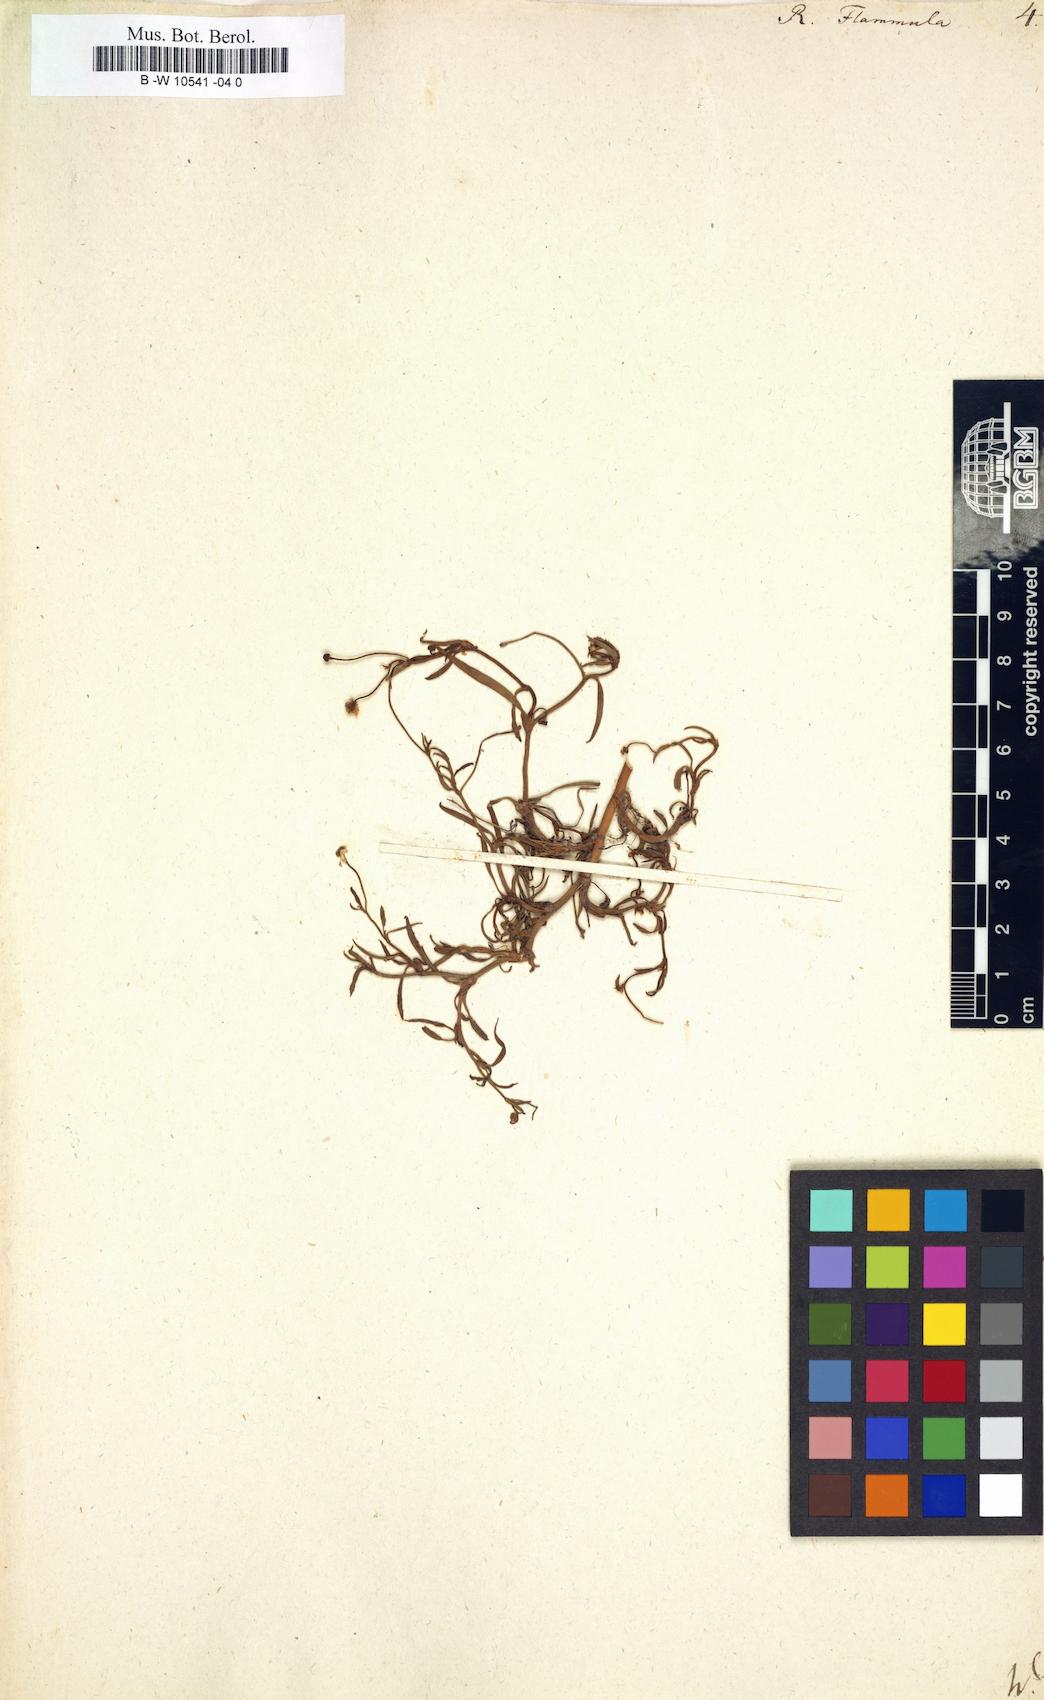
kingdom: Plantae
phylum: Tracheophyta
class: Magnoliopsida
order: Ranunculales
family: Ranunculaceae
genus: Ranunculus
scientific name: Ranunculus flammula
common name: Lesser spearwort
